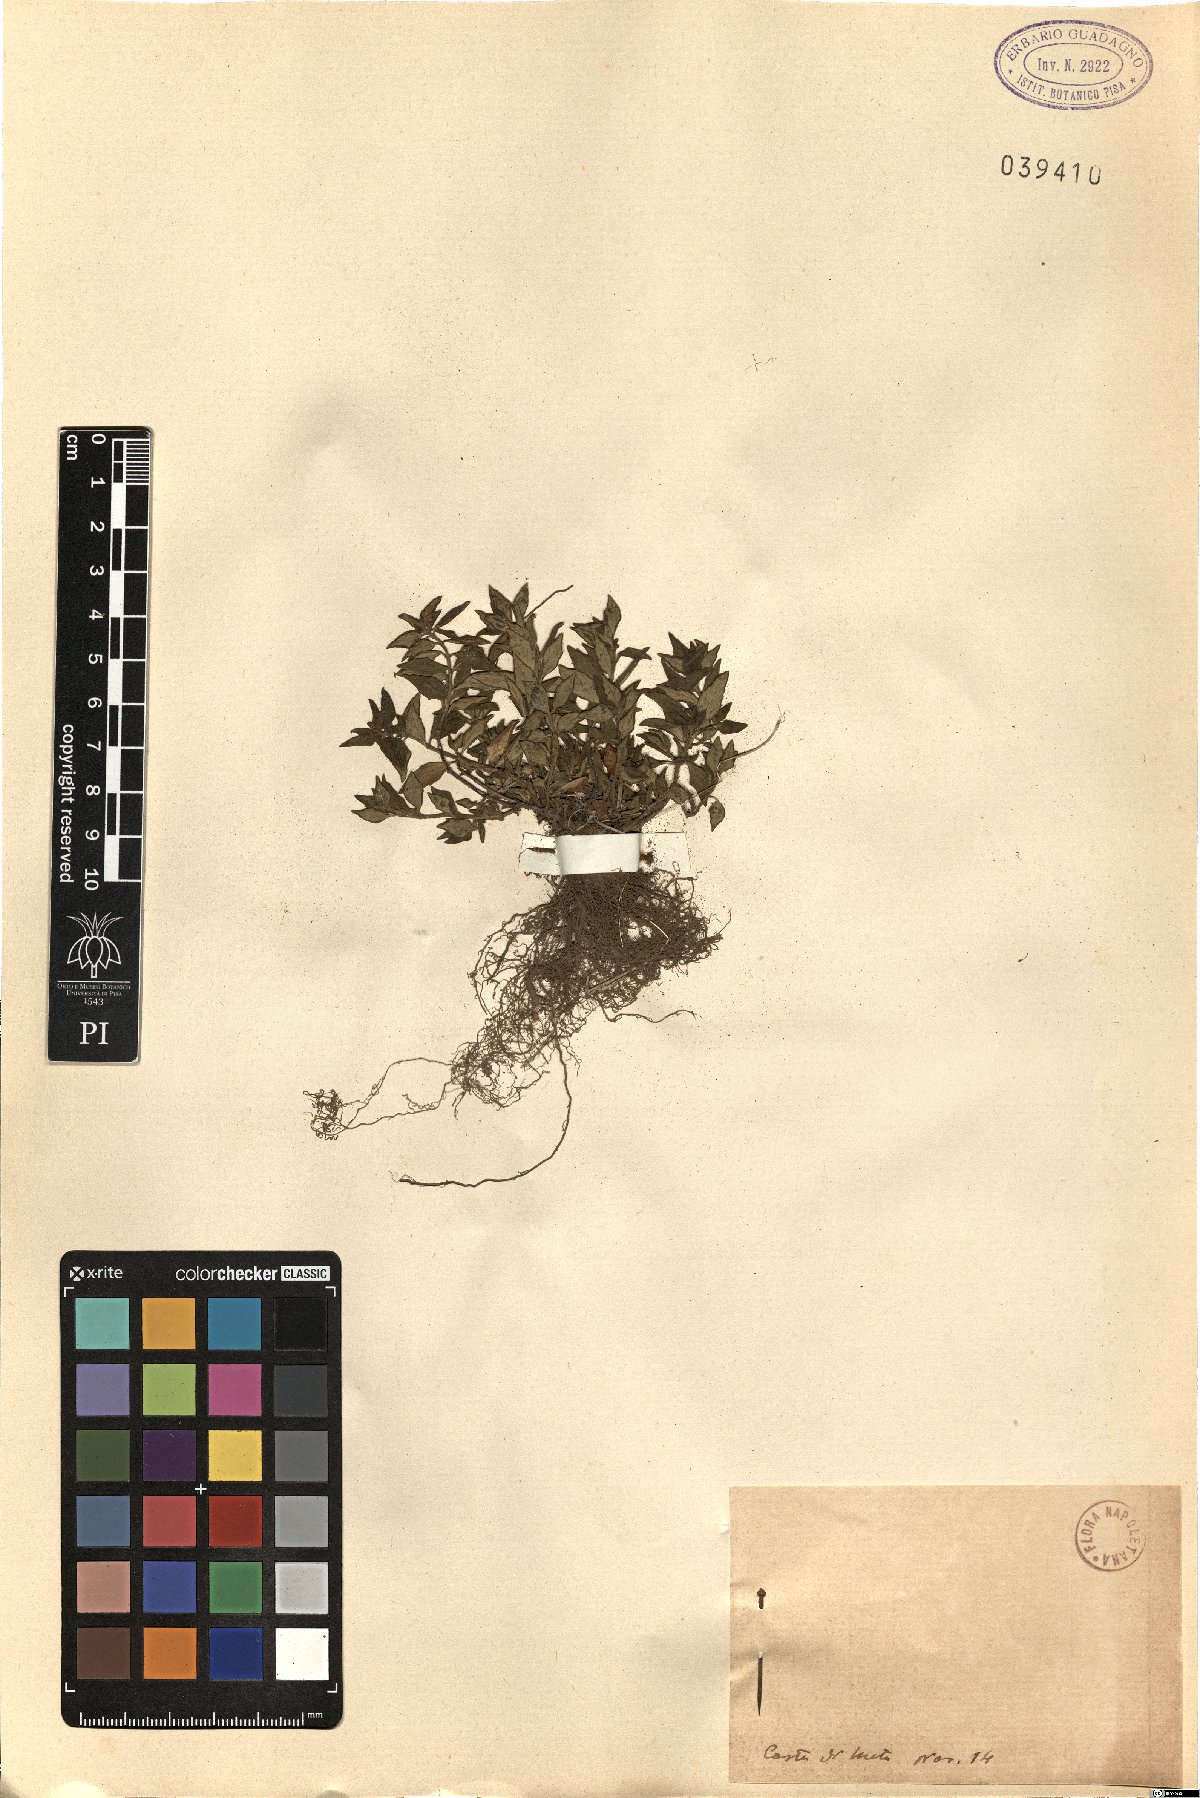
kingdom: Plantae
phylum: Tracheophyta
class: Magnoliopsida
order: Lamiales
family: Lamiaceae
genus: Calamintha
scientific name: Calamintha
